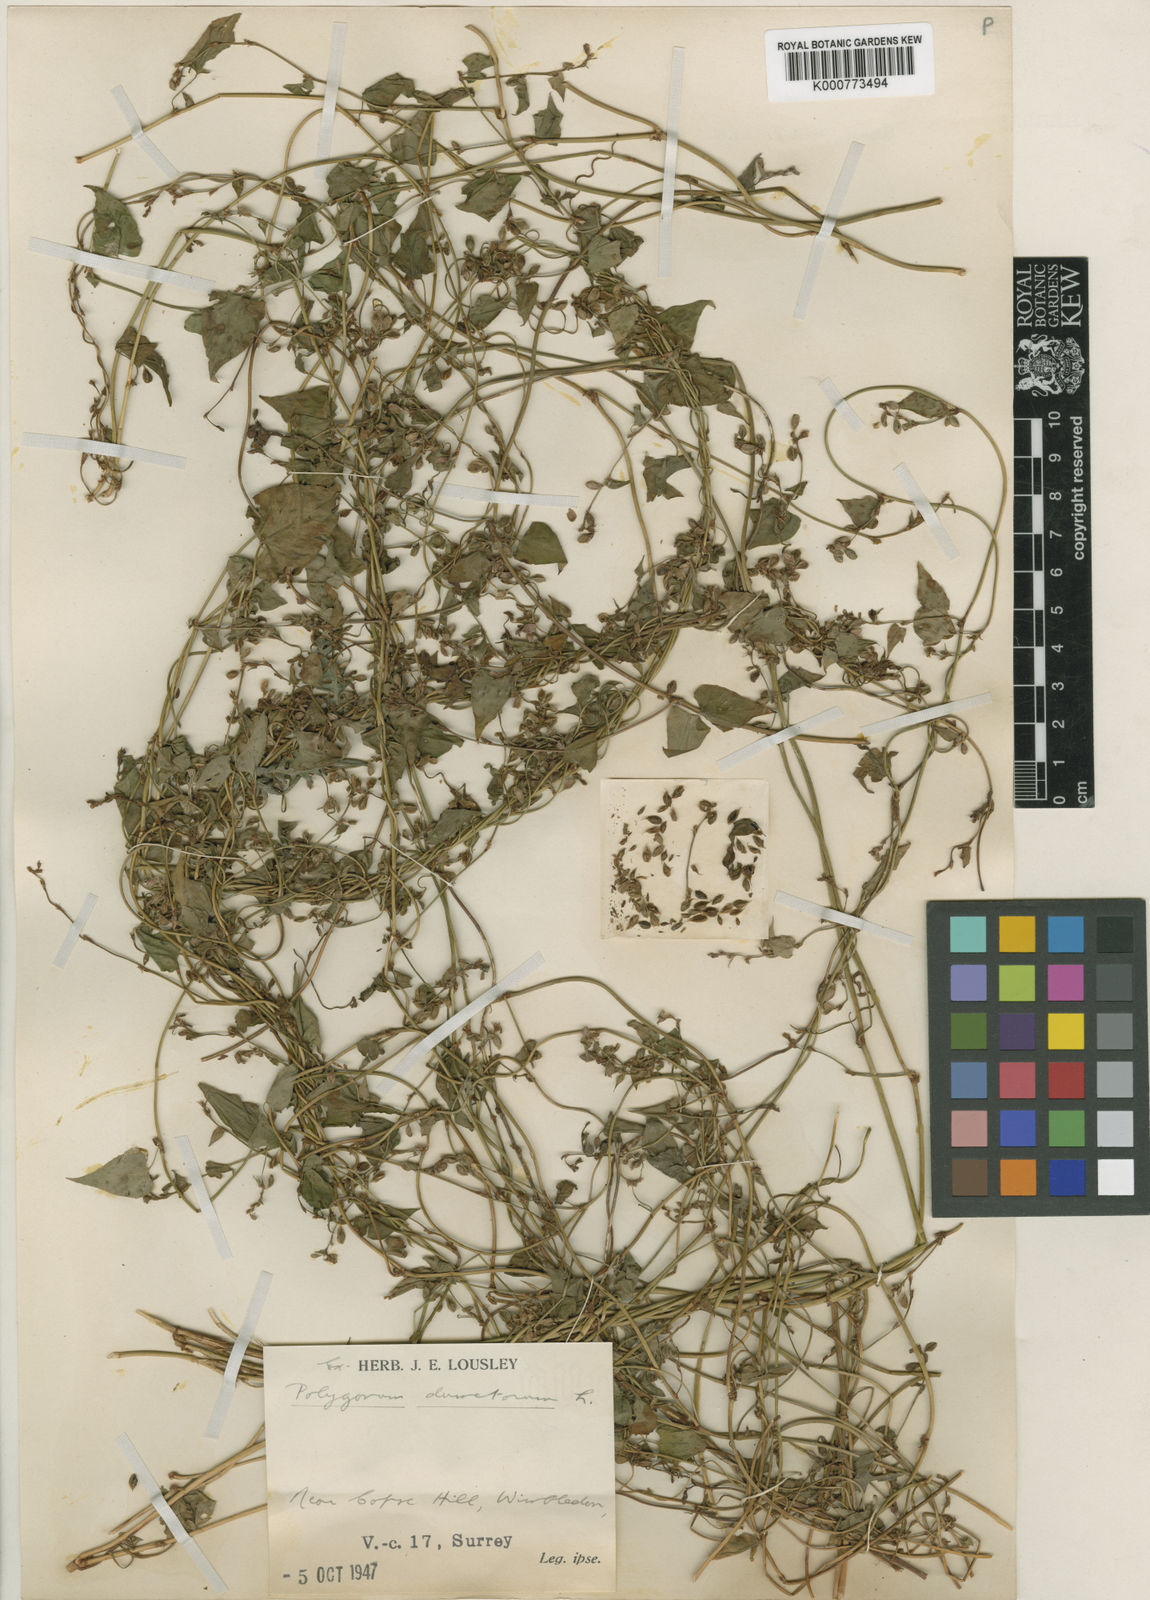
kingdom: Plantae
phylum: Tracheophyta
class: Magnoliopsida
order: Caryophyllales
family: Polygonaceae
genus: Fallopia
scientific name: Fallopia dumetorum
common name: Copse-bindweed
